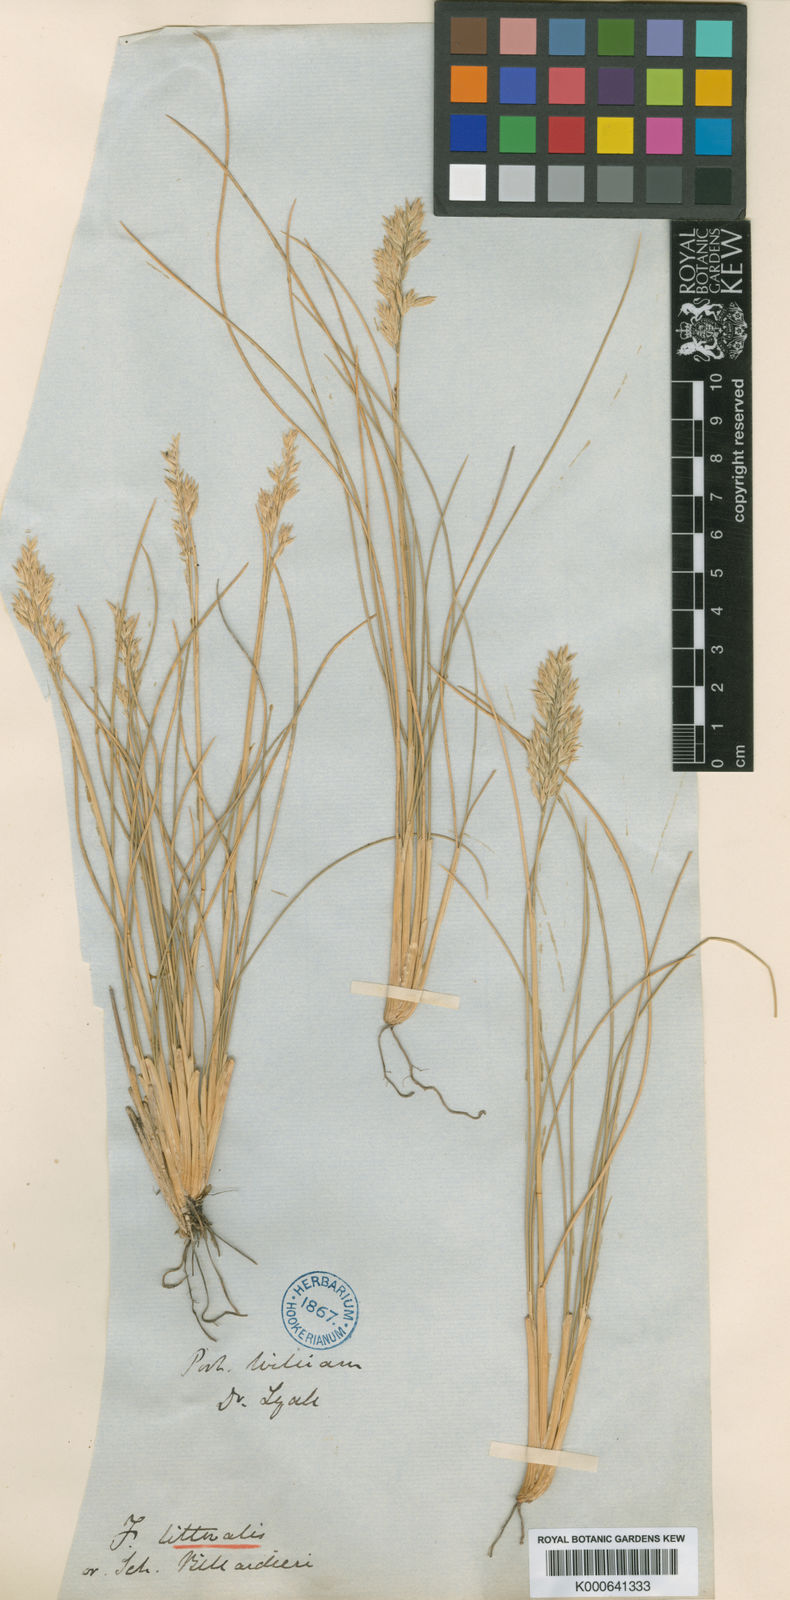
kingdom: Plantae
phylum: Tracheophyta
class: Liliopsida
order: Poales
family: Poaceae
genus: Poa
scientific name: Poa astonii
